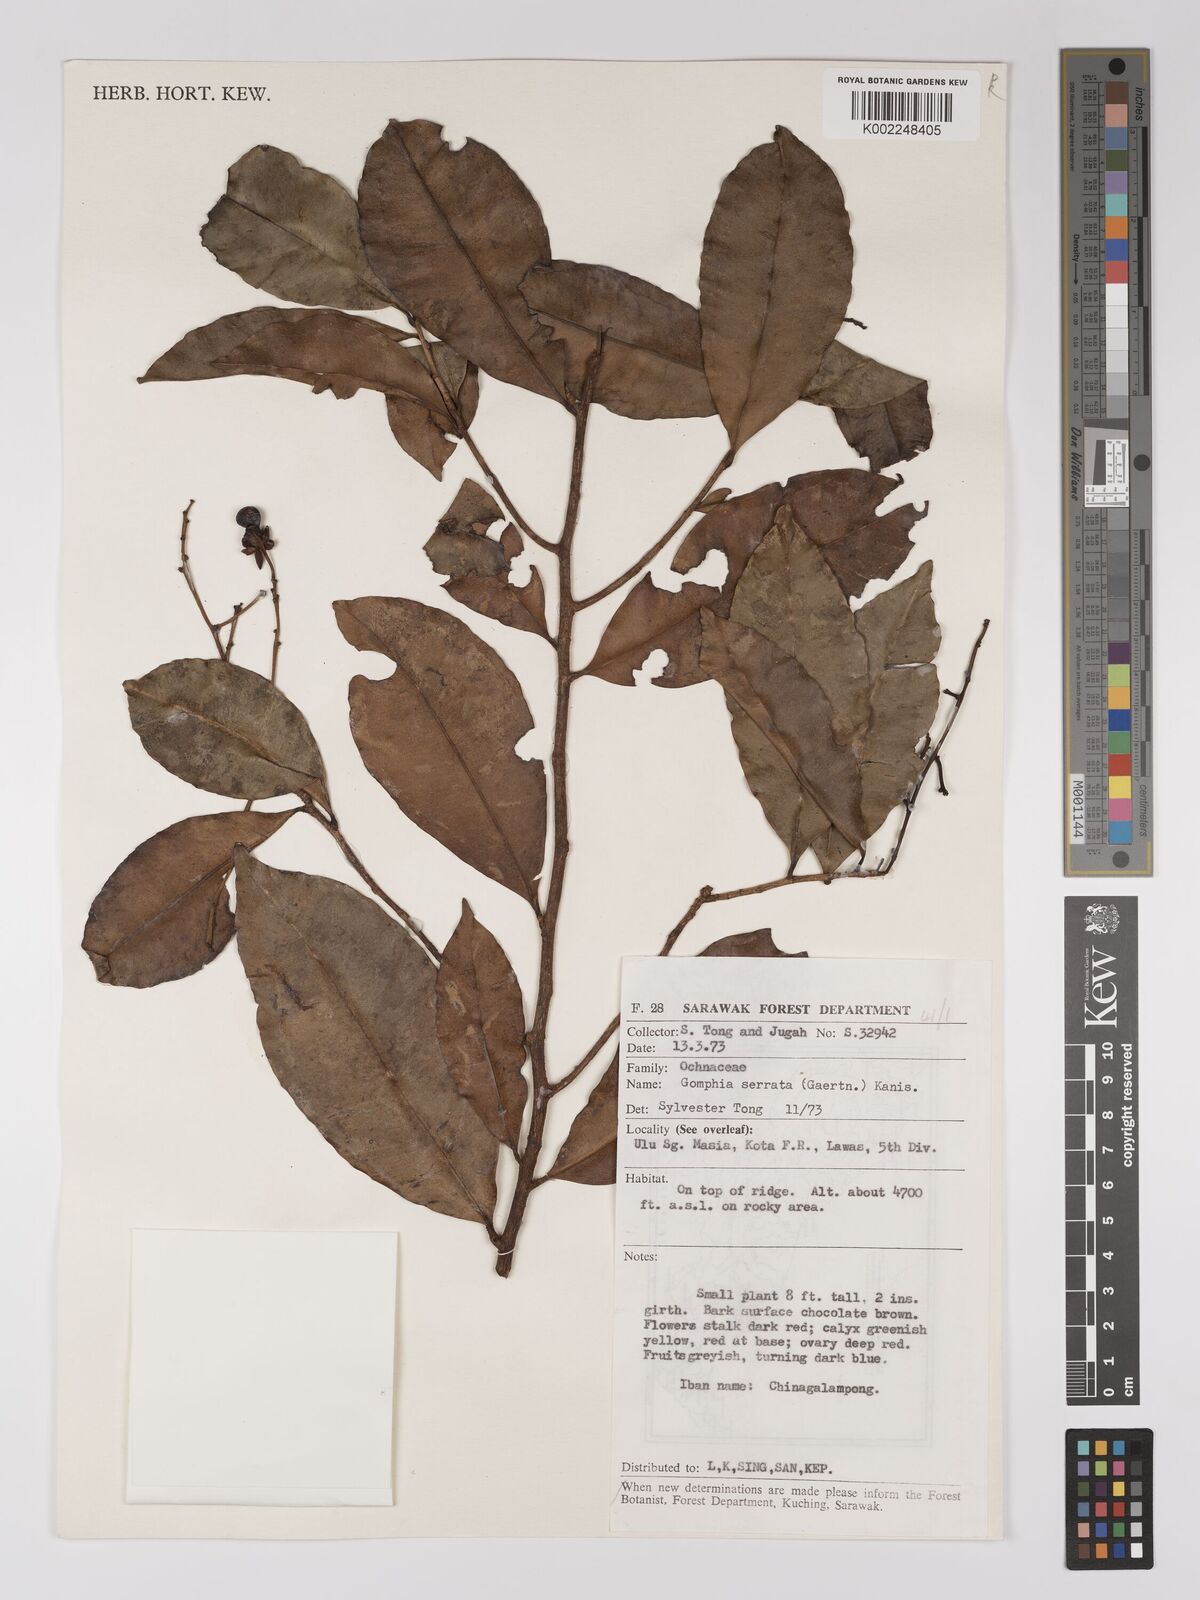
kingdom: Plantae
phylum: Tracheophyta
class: Magnoliopsida
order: Malpighiales
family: Ochnaceae
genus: Gomphia
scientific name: Gomphia serrata
